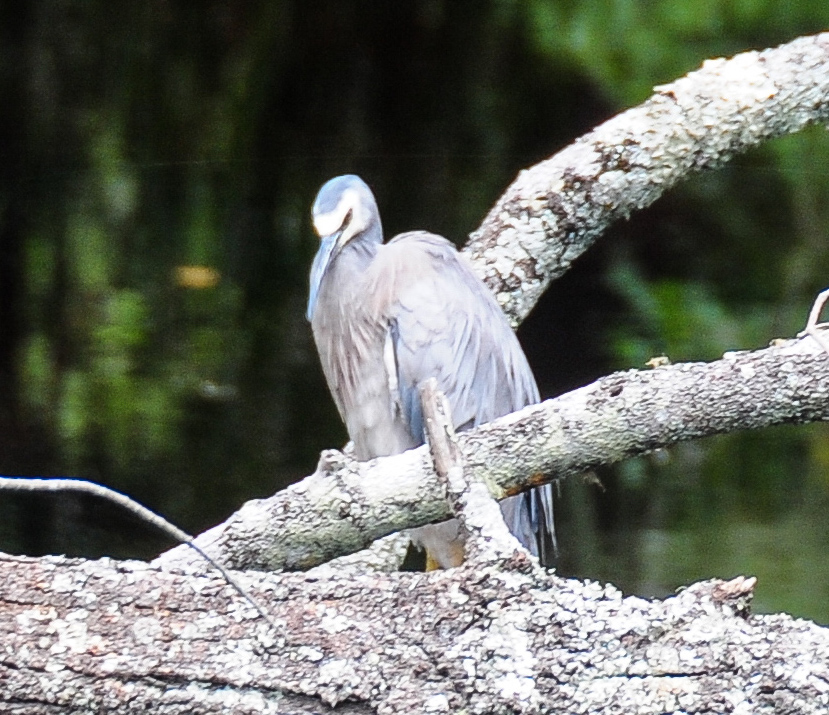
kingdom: Animalia
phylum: Chordata
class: Aves
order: Pelecaniformes
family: Ardeidae
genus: Egretta
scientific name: Egretta novaehollandiae
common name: White-faced heron
